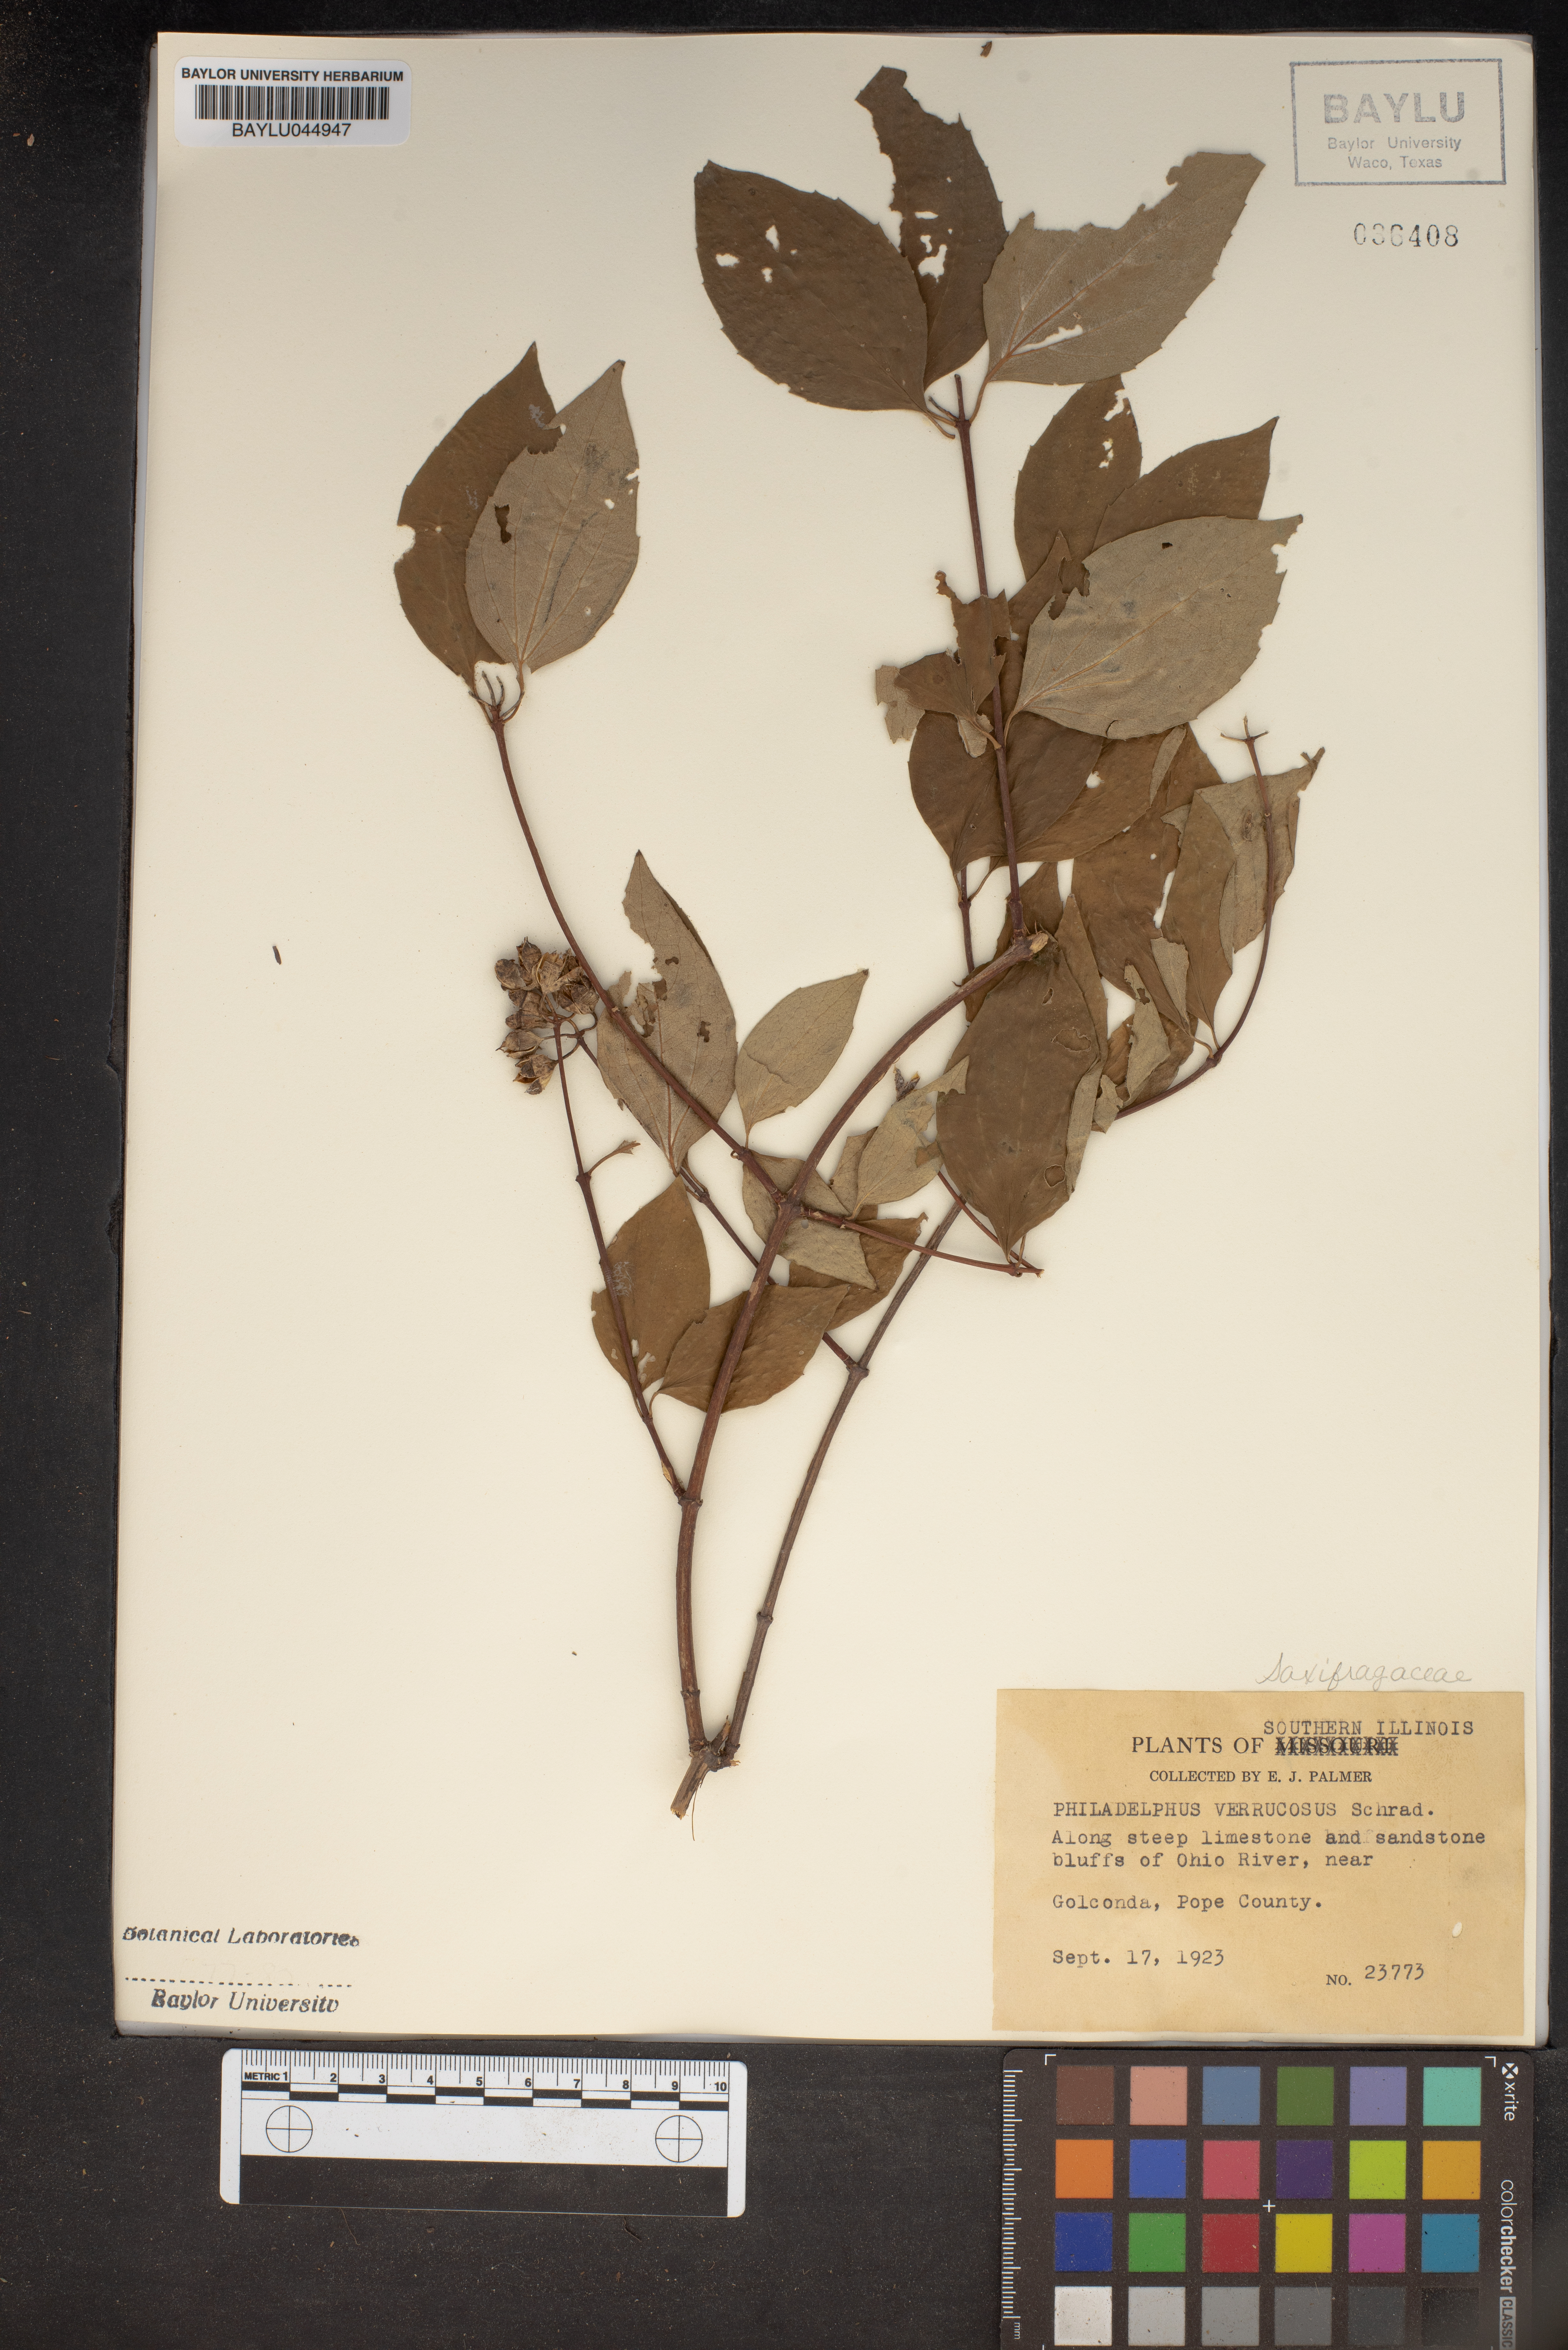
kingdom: Plantae
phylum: Tracheophyta
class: Magnoliopsida
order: Cornales
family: Hydrangeaceae
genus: Philadelphus
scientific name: Philadelphus pubescens
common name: Broadleaf mock orange
